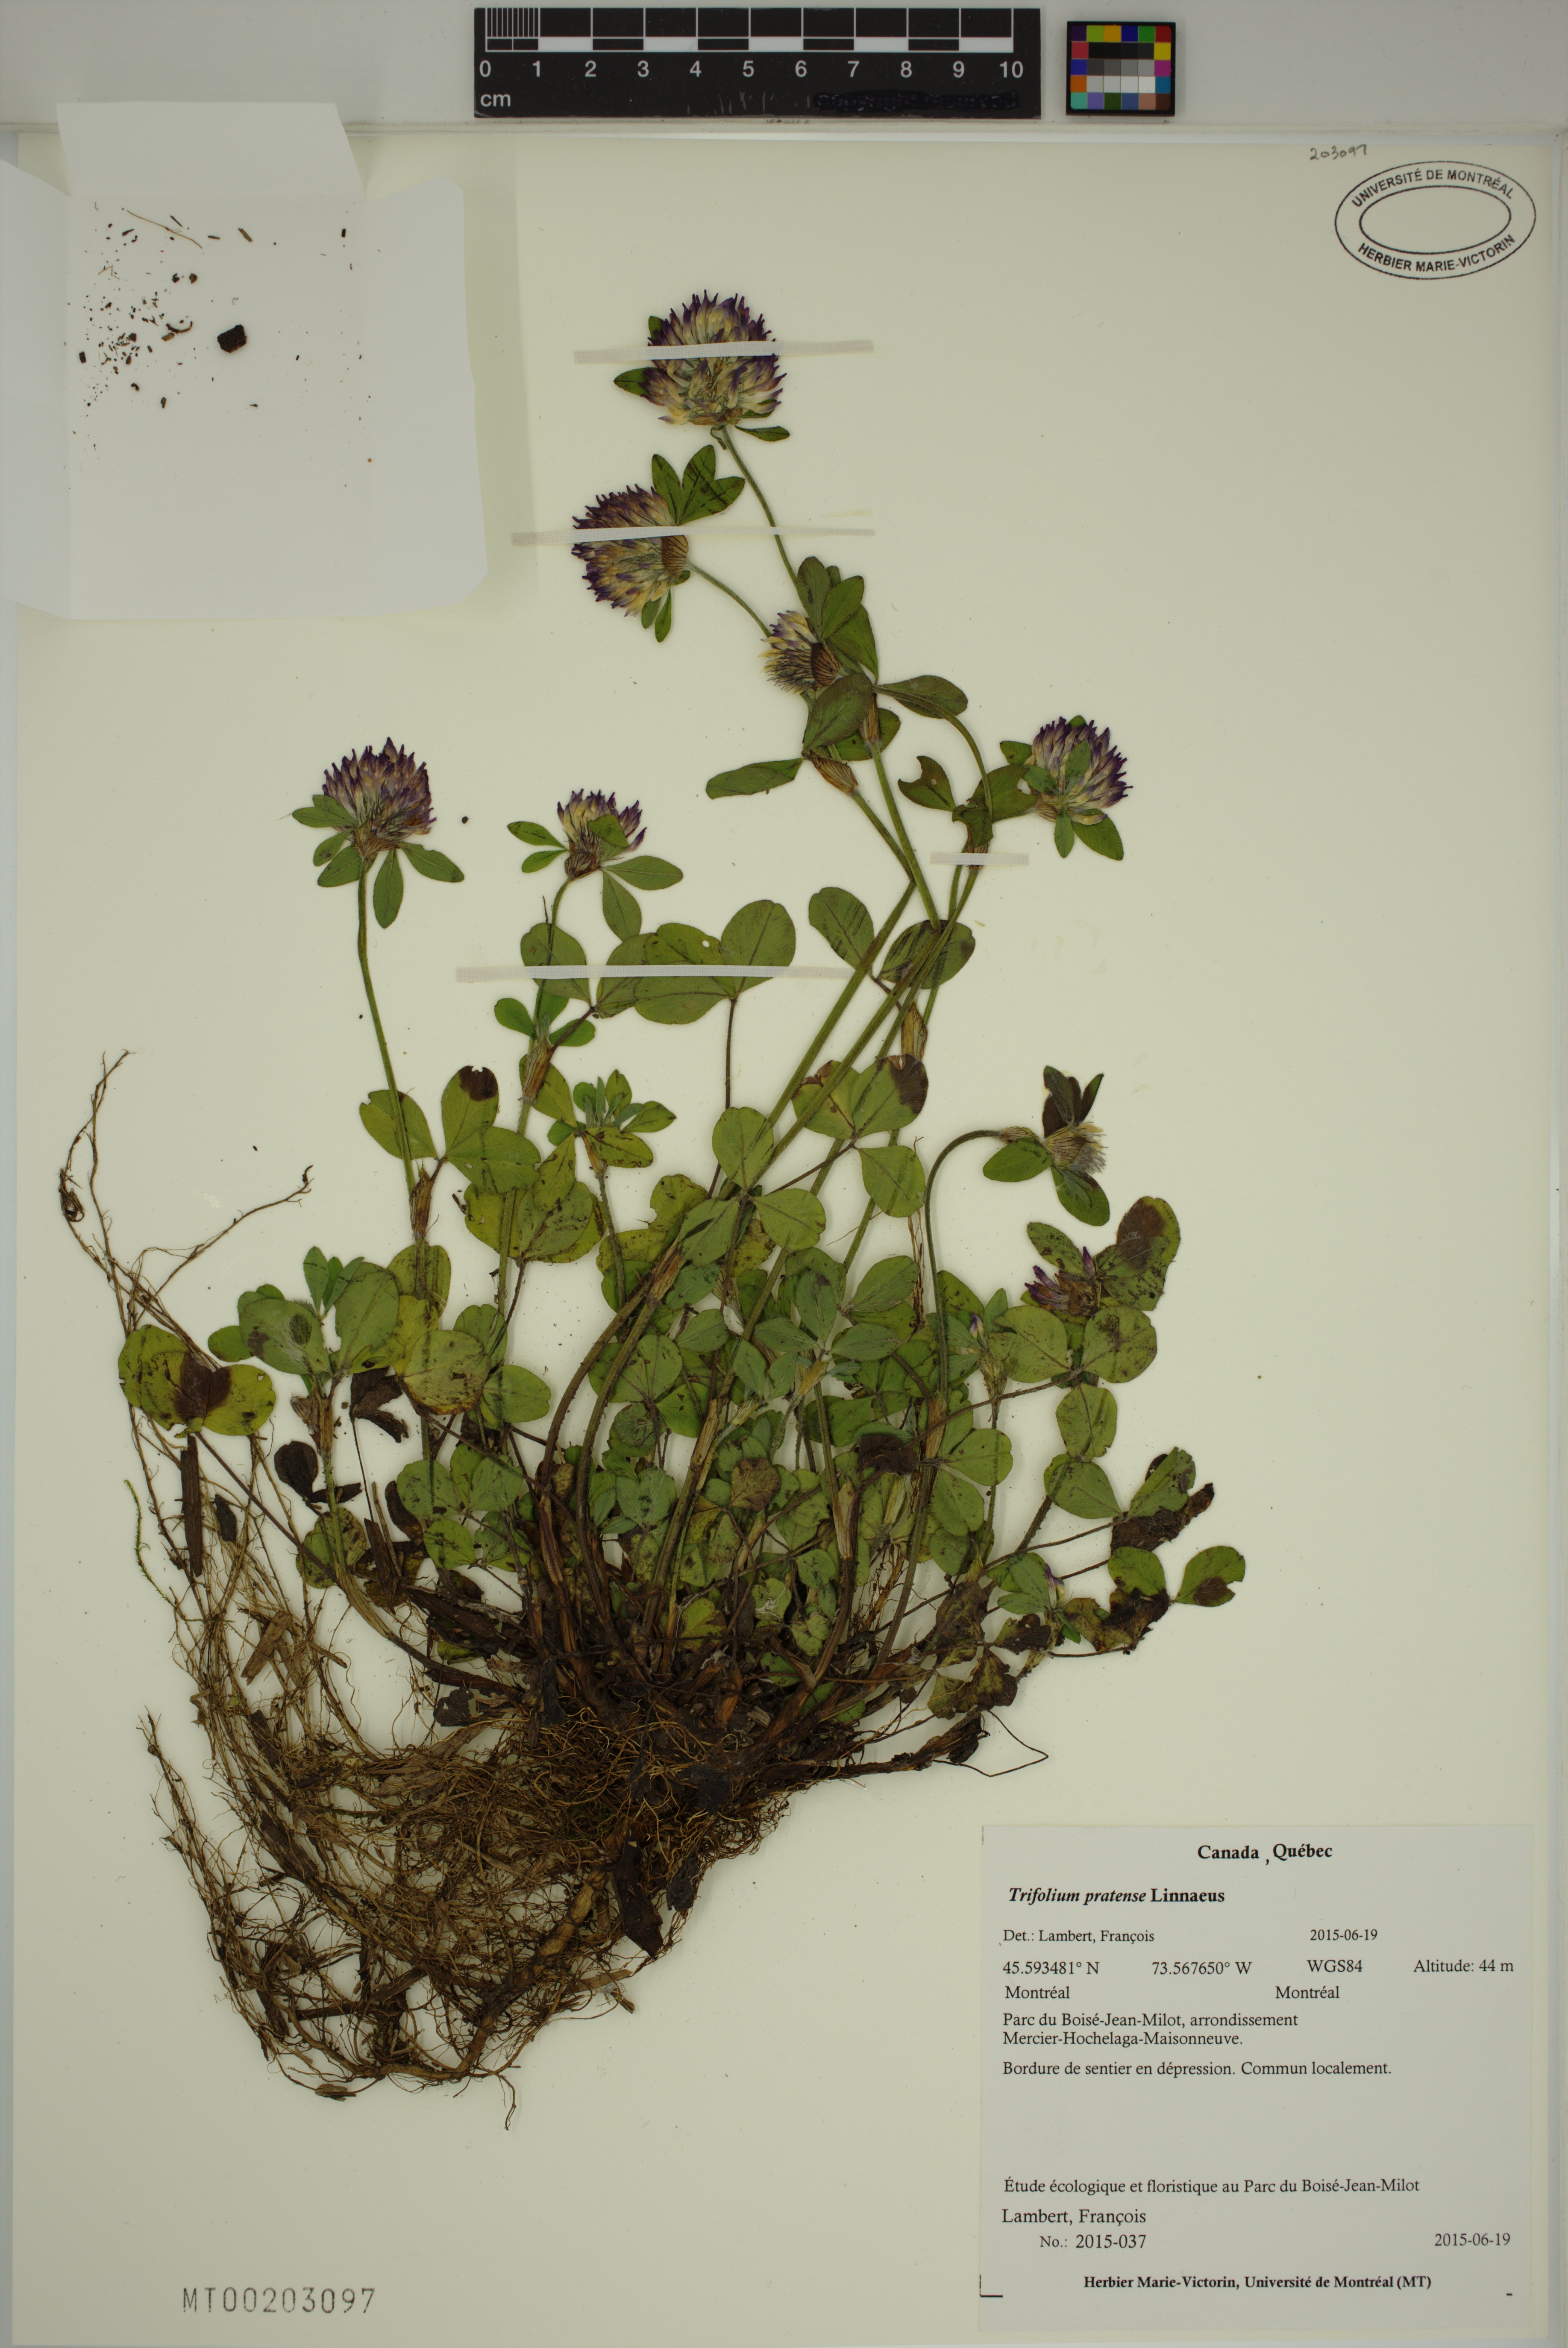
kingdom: Plantae
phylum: Tracheophyta
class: Magnoliopsida
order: Fabales
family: Fabaceae
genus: Trifolium
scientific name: Trifolium pratense
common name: Red clover
